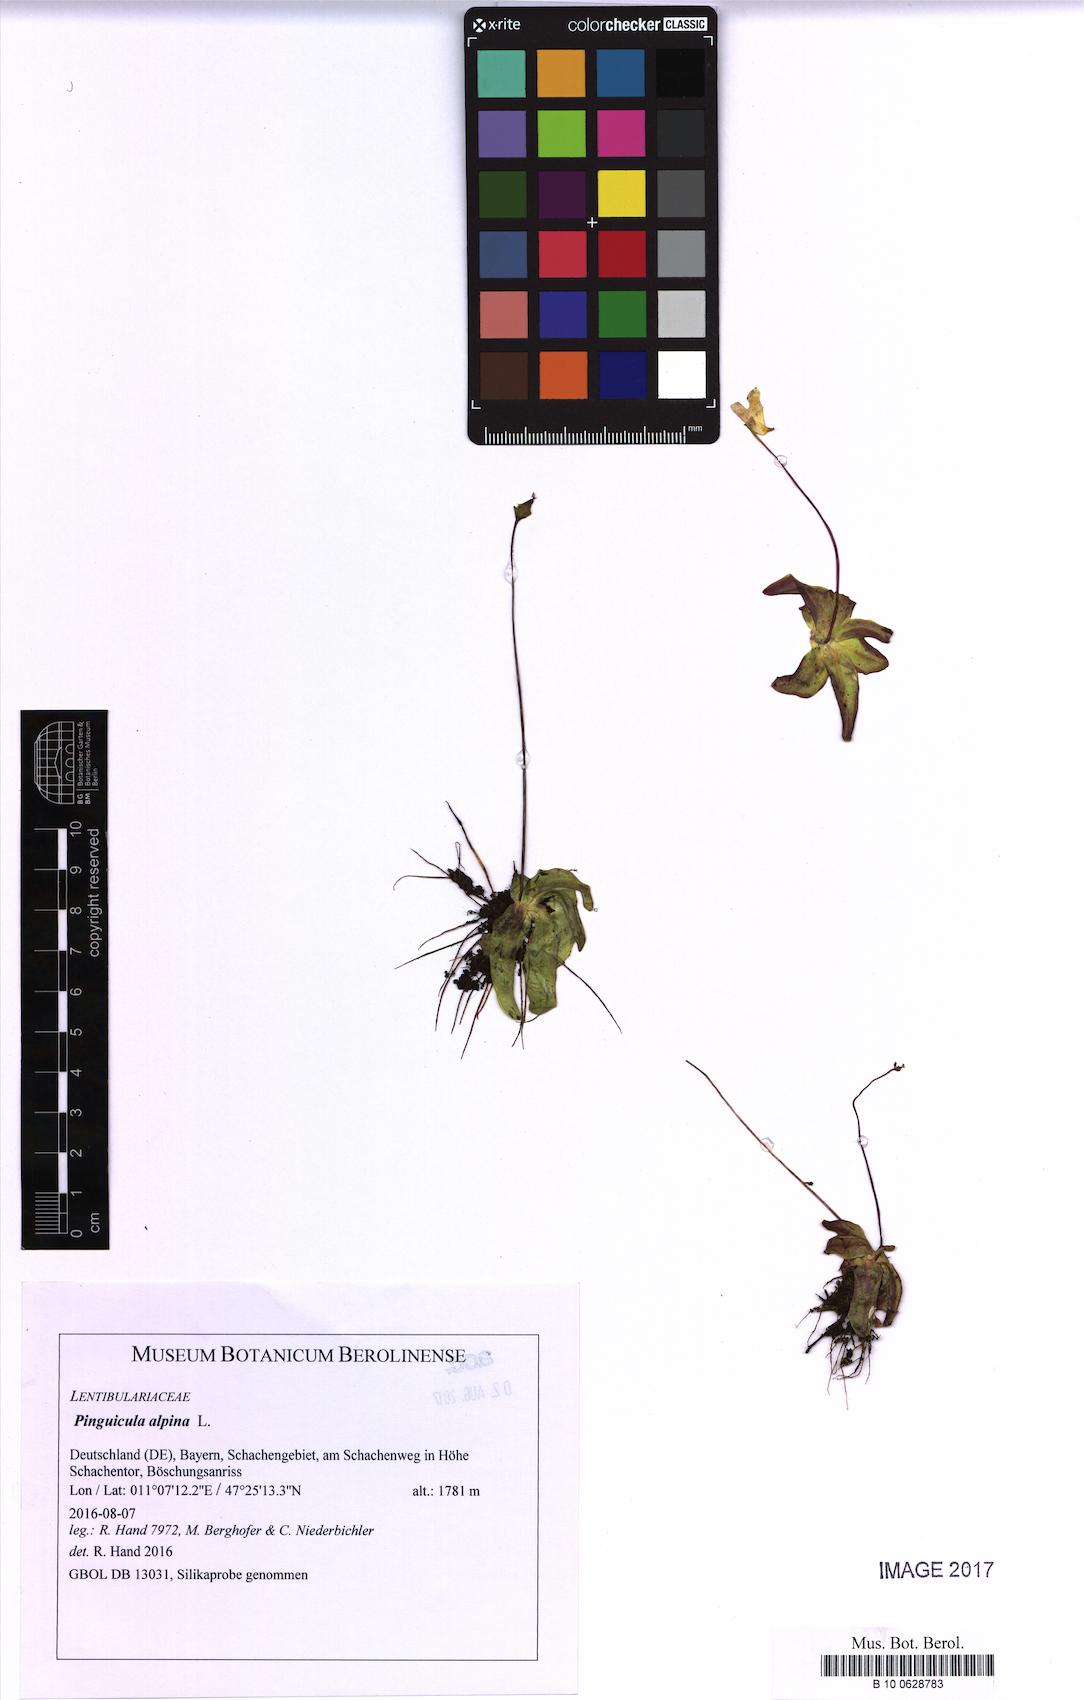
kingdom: Plantae
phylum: Tracheophyta
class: Magnoliopsida
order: Lamiales
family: Lentibulariaceae
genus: Pinguicula
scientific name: Pinguicula alpina
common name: Alpine butterwort
